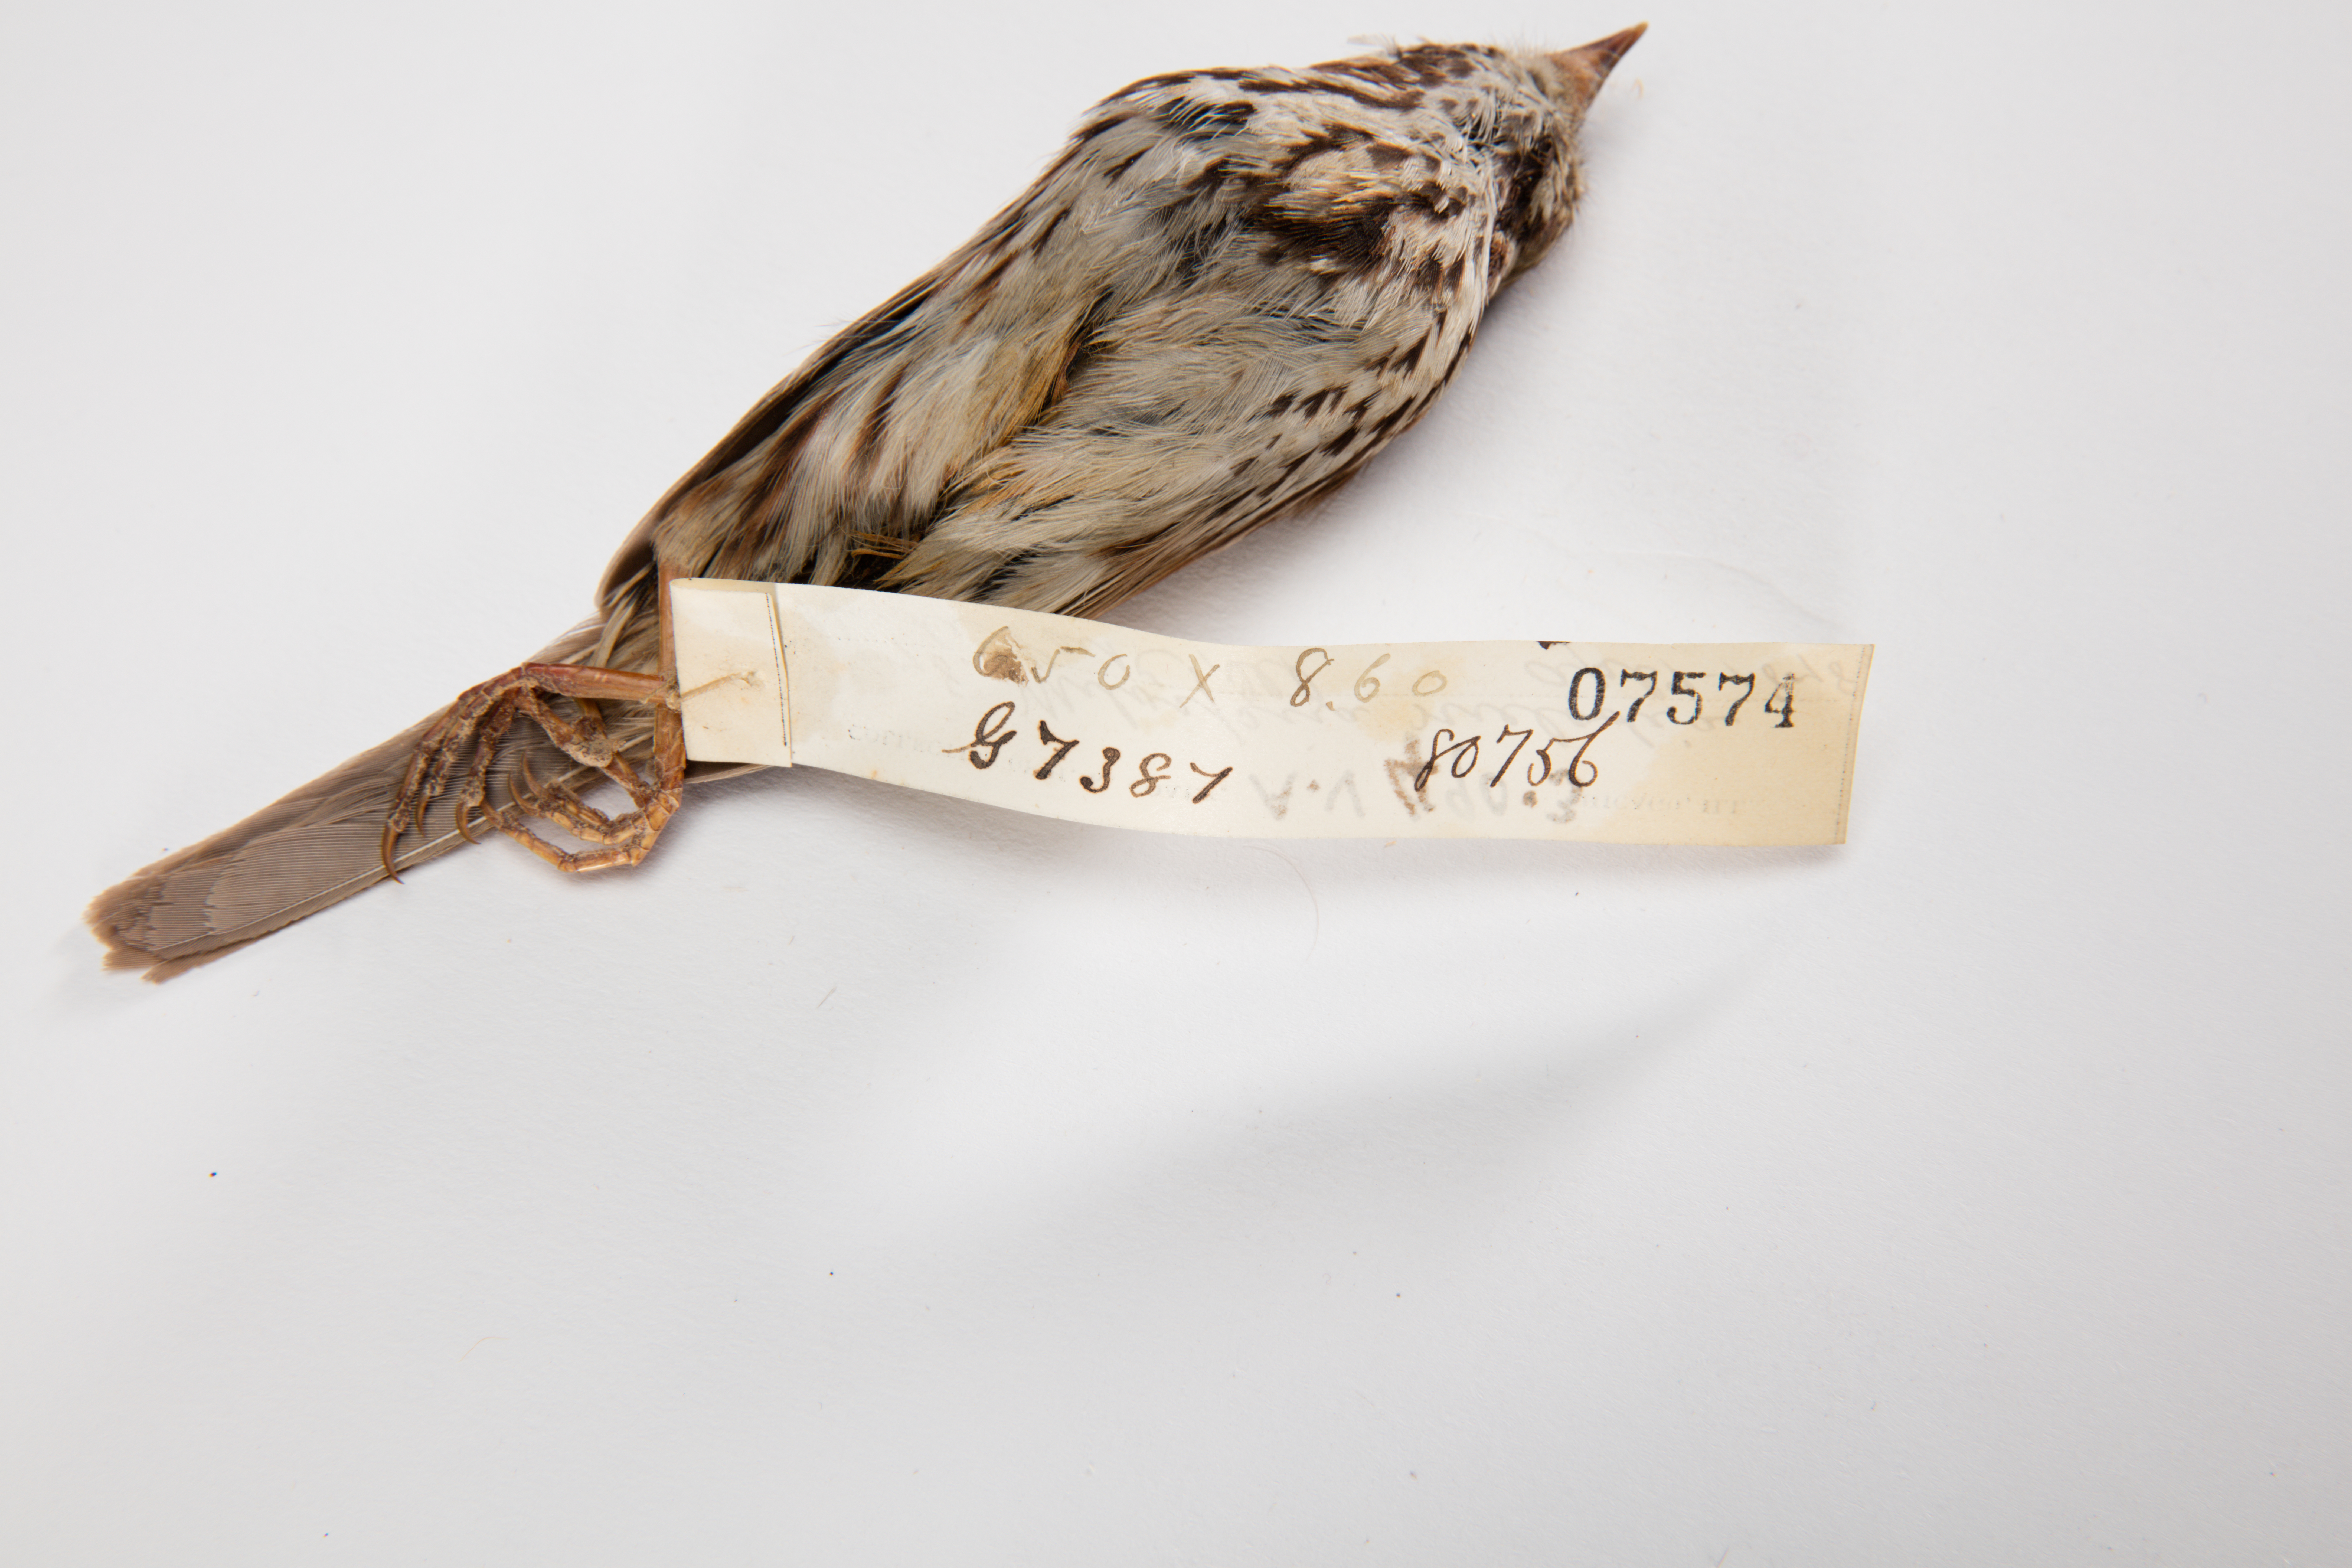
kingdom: Animalia
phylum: Chordata
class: Aves
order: Passeriformes
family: Passerellidae
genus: Melospiza
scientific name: Melospiza melodia
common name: Song sparrow
